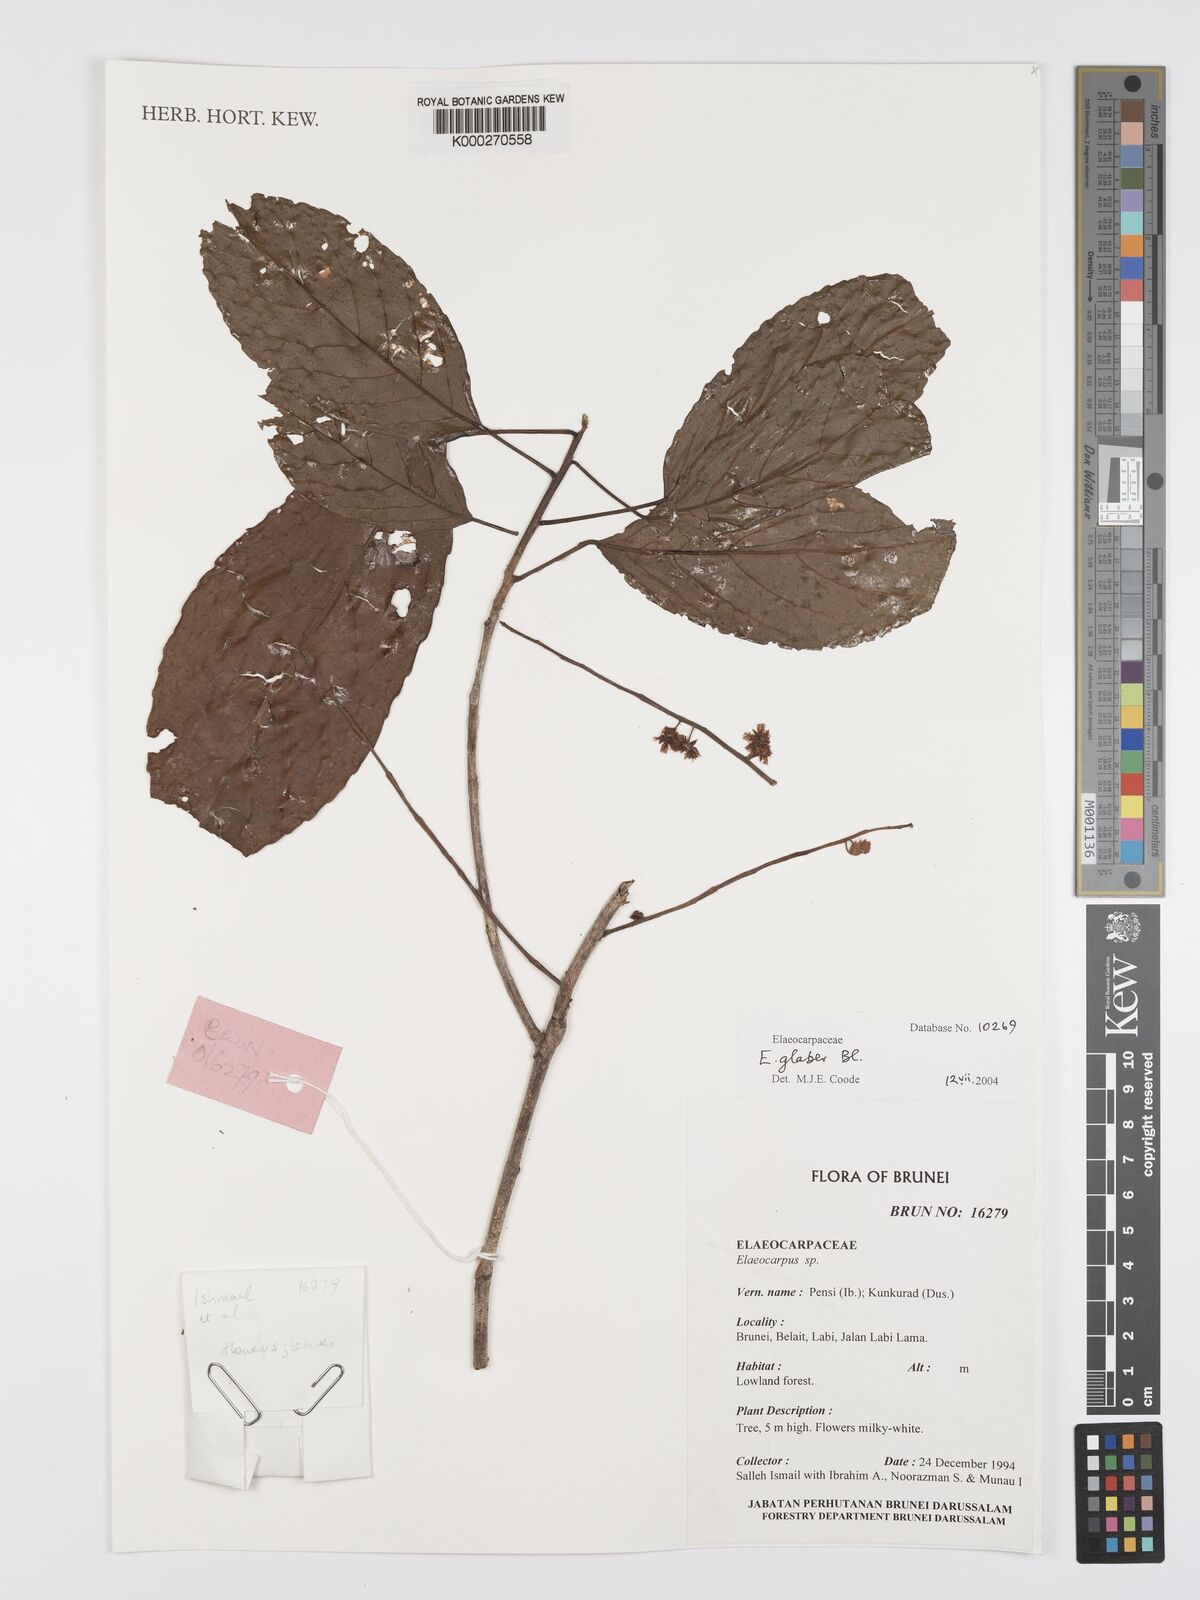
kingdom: Plantae
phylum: Tracheophyta
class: Magnoliopsida
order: Oxalidales
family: Elaeocarpaceae
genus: Elaeocarpus
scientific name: Elaeocarpus glaber
